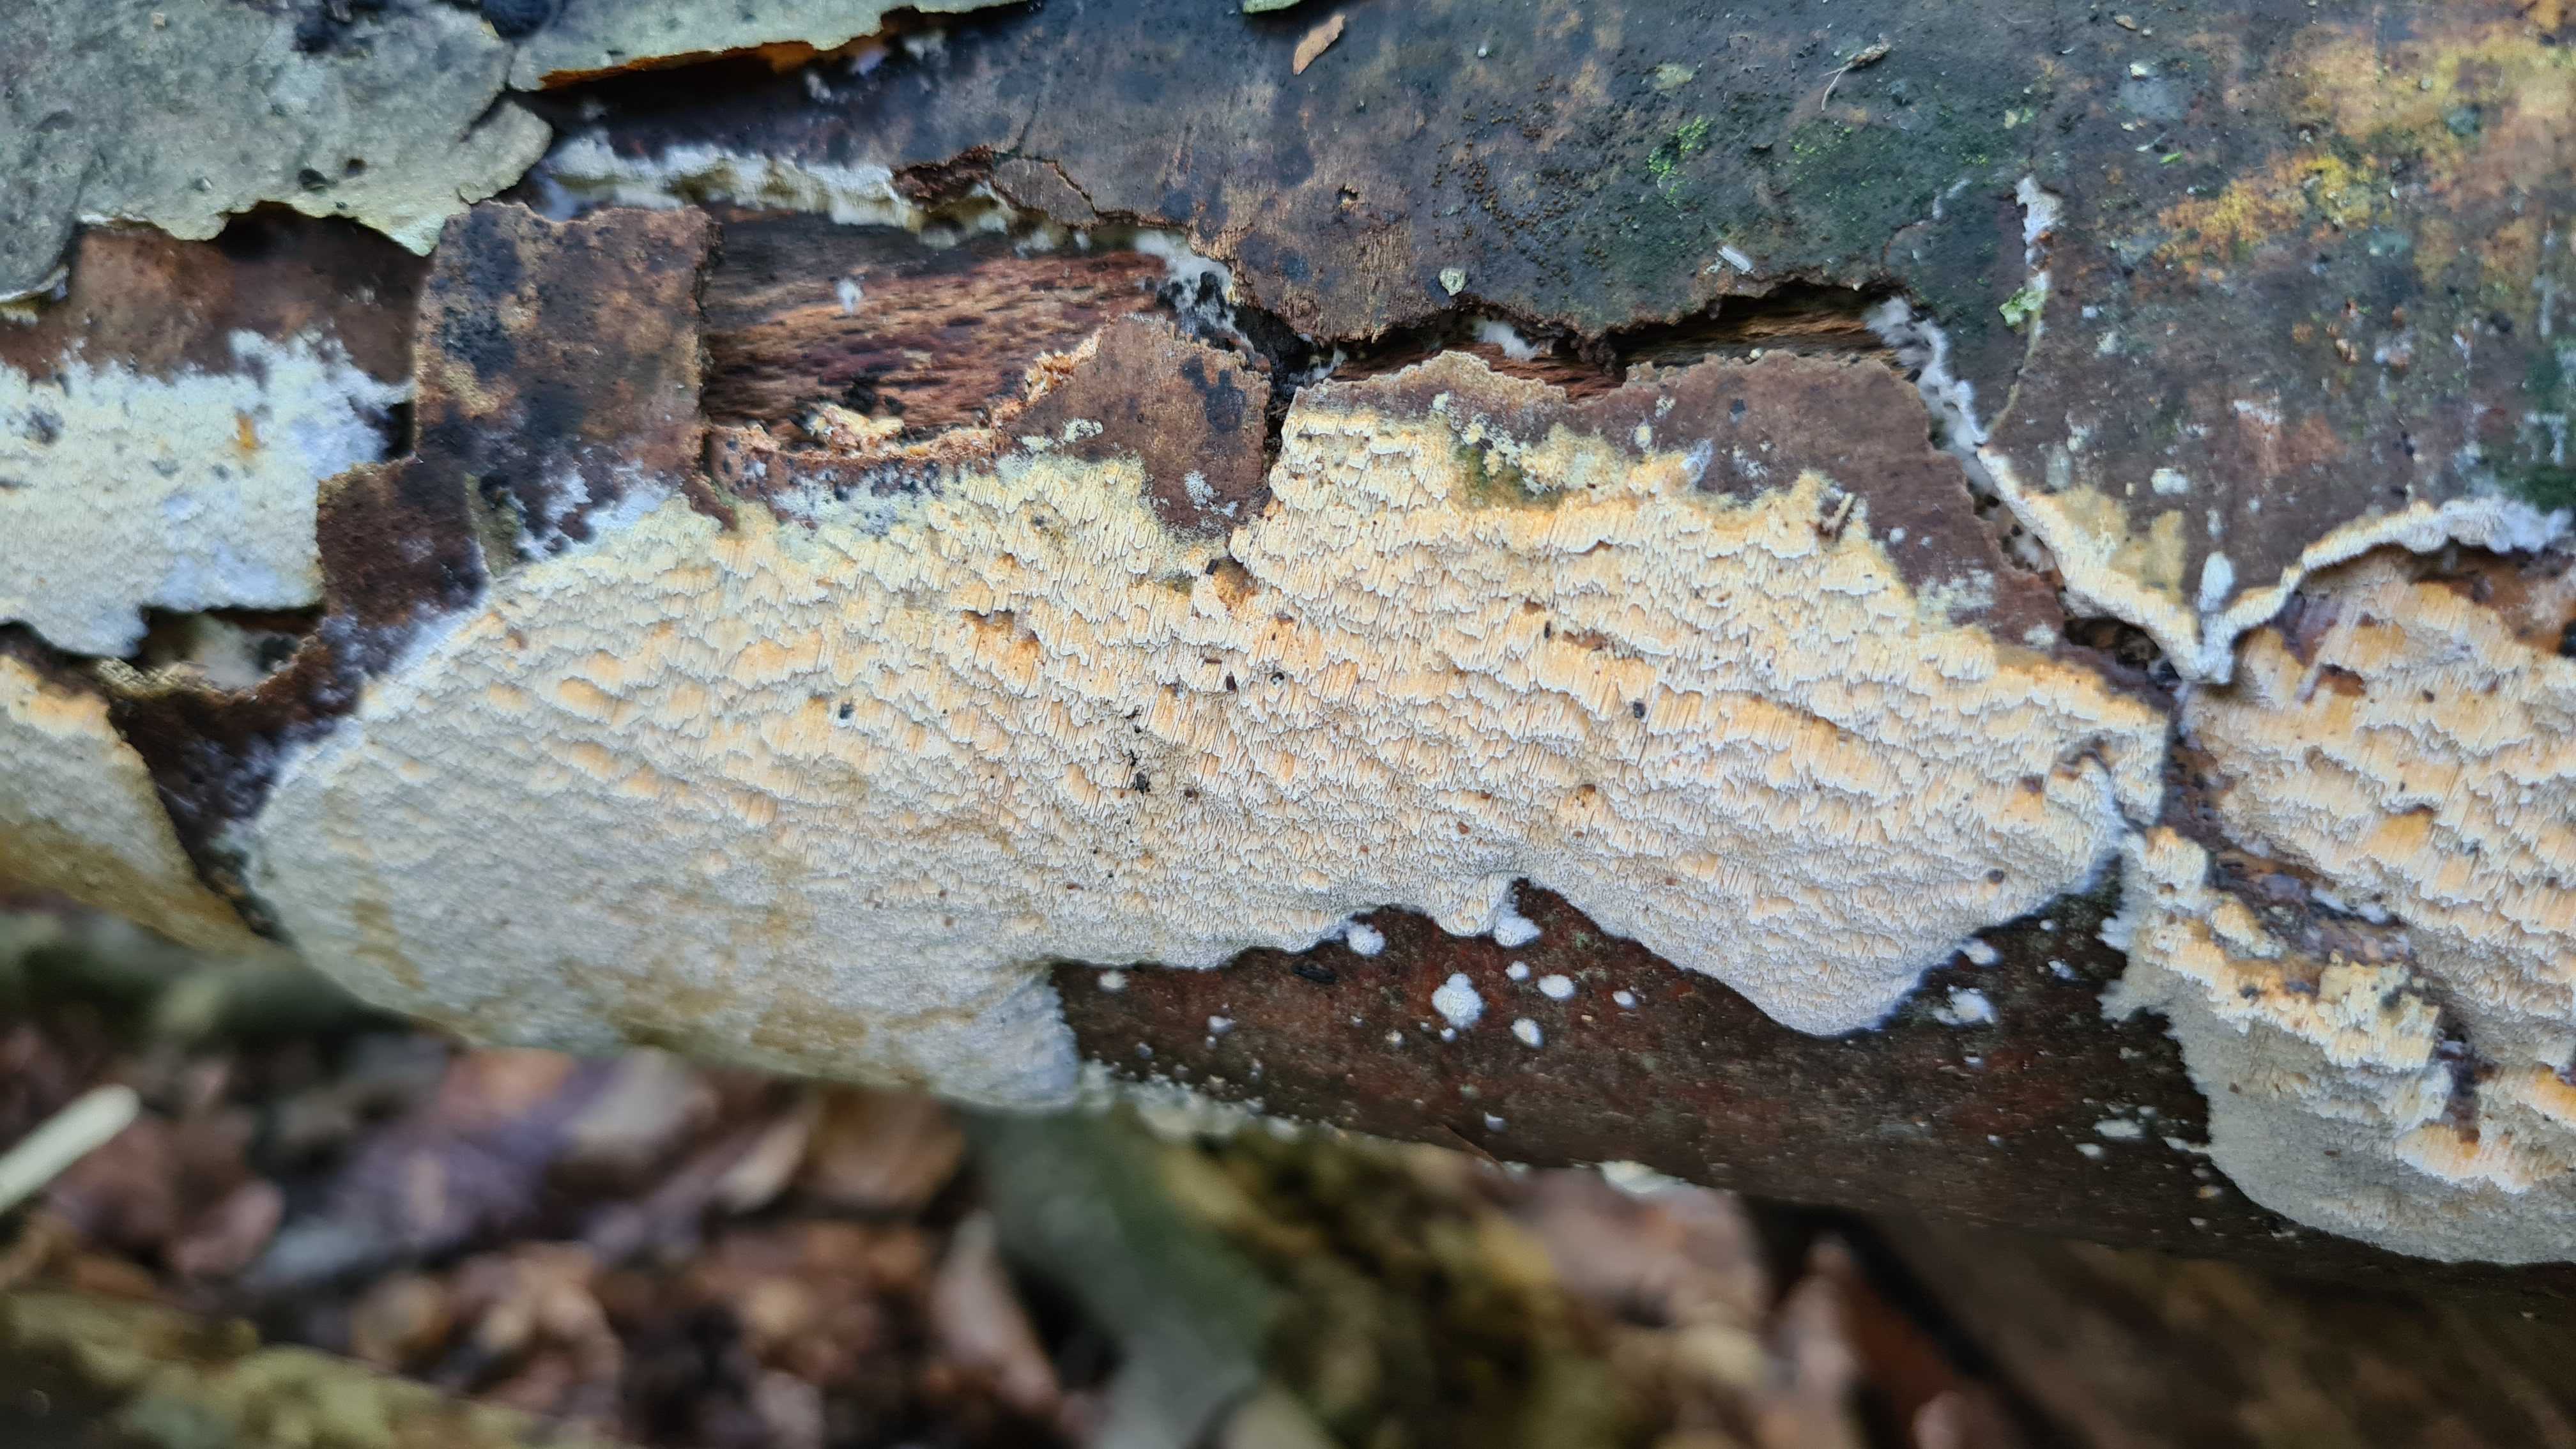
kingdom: Fungi
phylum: Basidiomycota
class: Agaricomycetes
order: Polyporales
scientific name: Polyporales
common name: poresvampordenen
